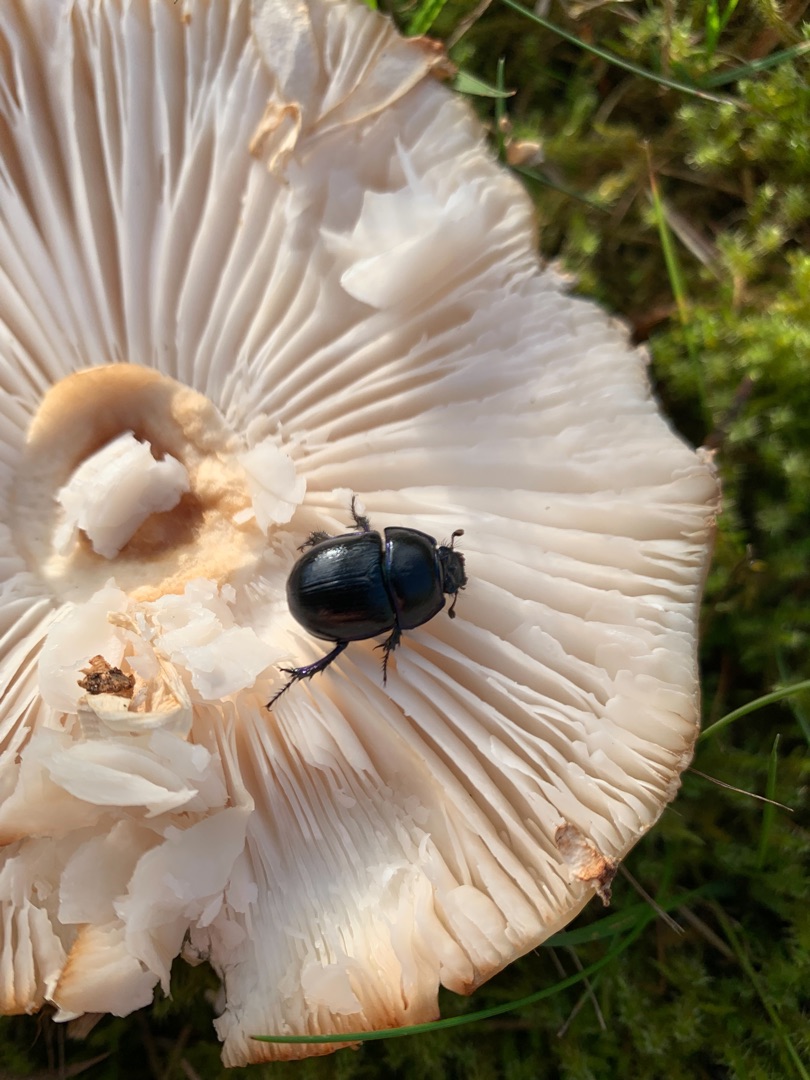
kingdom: Animalia
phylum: Arthropoda
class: Insecta
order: Coleoptera
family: Geotrupidae
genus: Anoplotrupes
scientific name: Anoplotrupes stercorosus
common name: Skovskarnbasse
